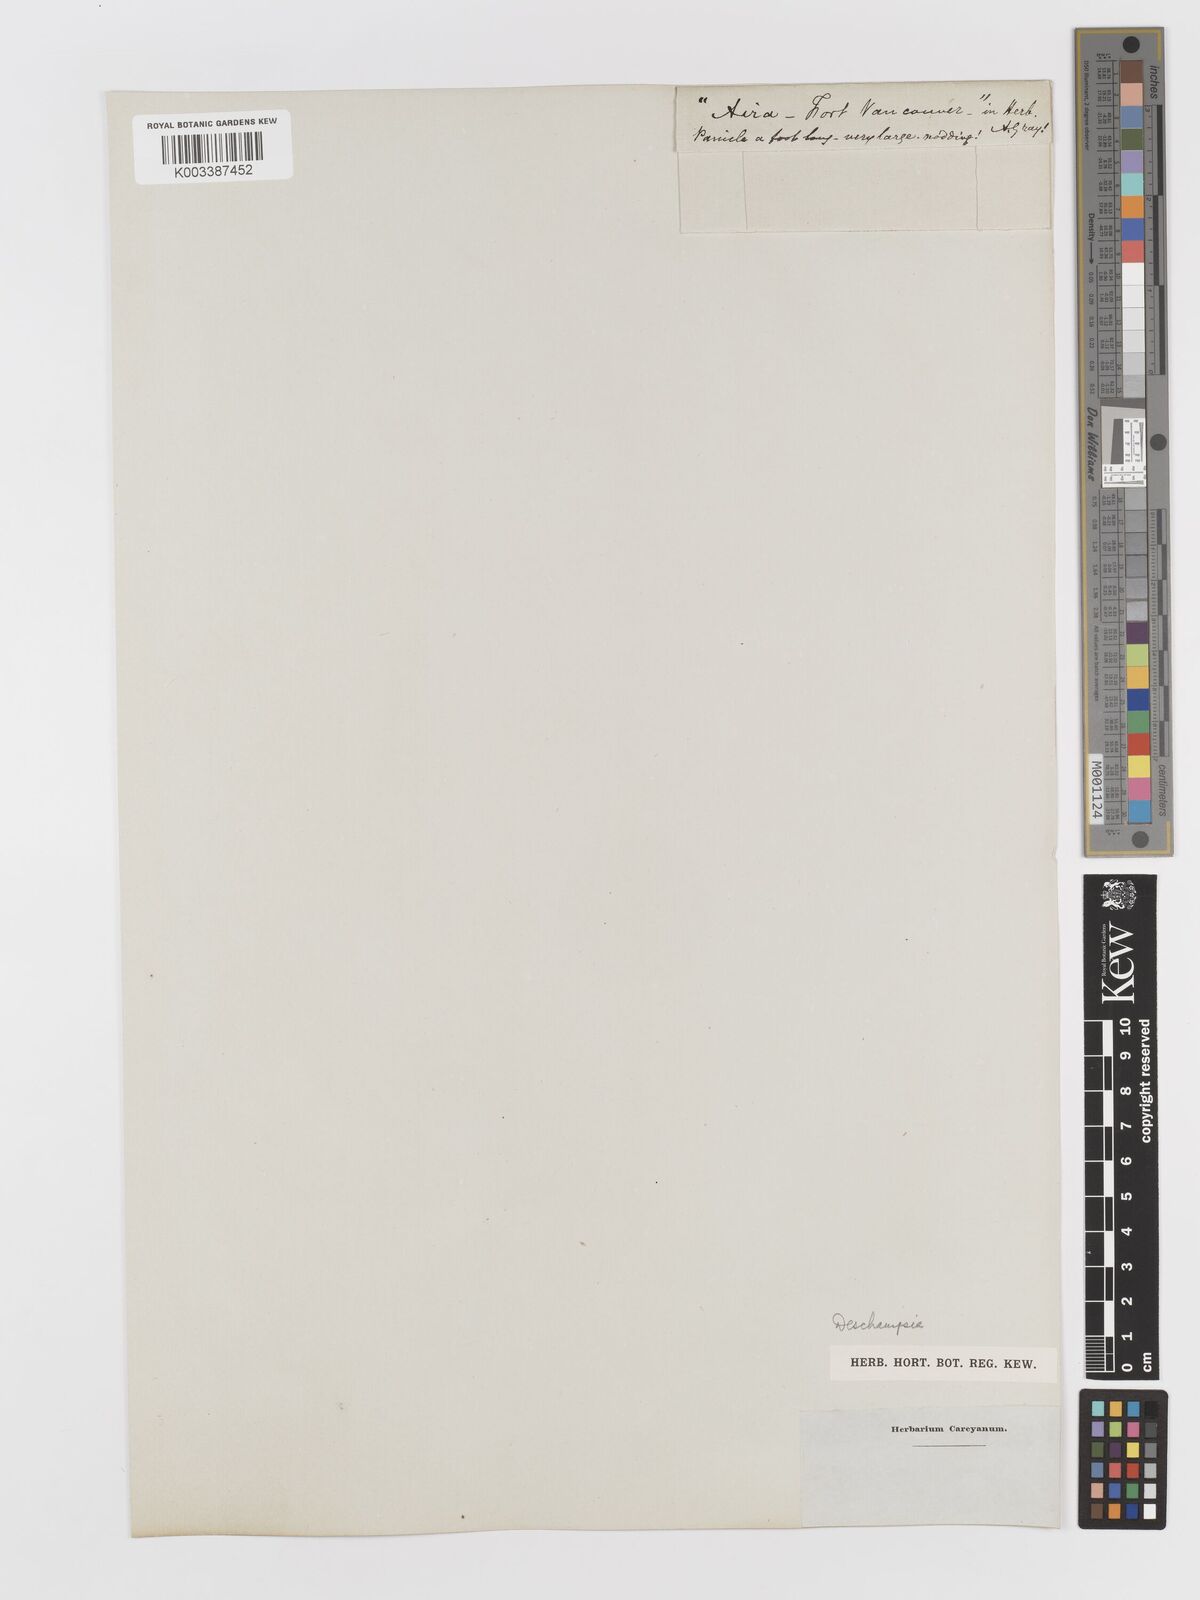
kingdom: Plantae
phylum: Tracheophyta
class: Liliopsida
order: Poales
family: Poaceae
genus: Deschampsia
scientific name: Deschampsia
